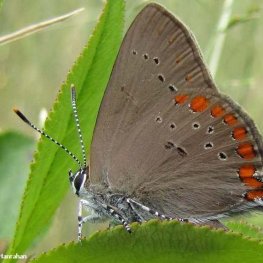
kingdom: Animalia
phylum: Arthropoda
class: Insecta
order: Lepidoptera
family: Lycaenidae
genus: Harkenclenus
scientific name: Harkenclenus titus
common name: Coral Hairstreak
